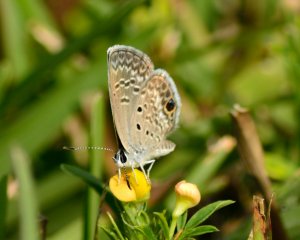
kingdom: Animalia
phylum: Arthropoda
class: Insecta
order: Lepidoptera
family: Lycaenidae
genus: Hemiargus
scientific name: Hemiargus ceraunus
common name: Ceraunus Blue
